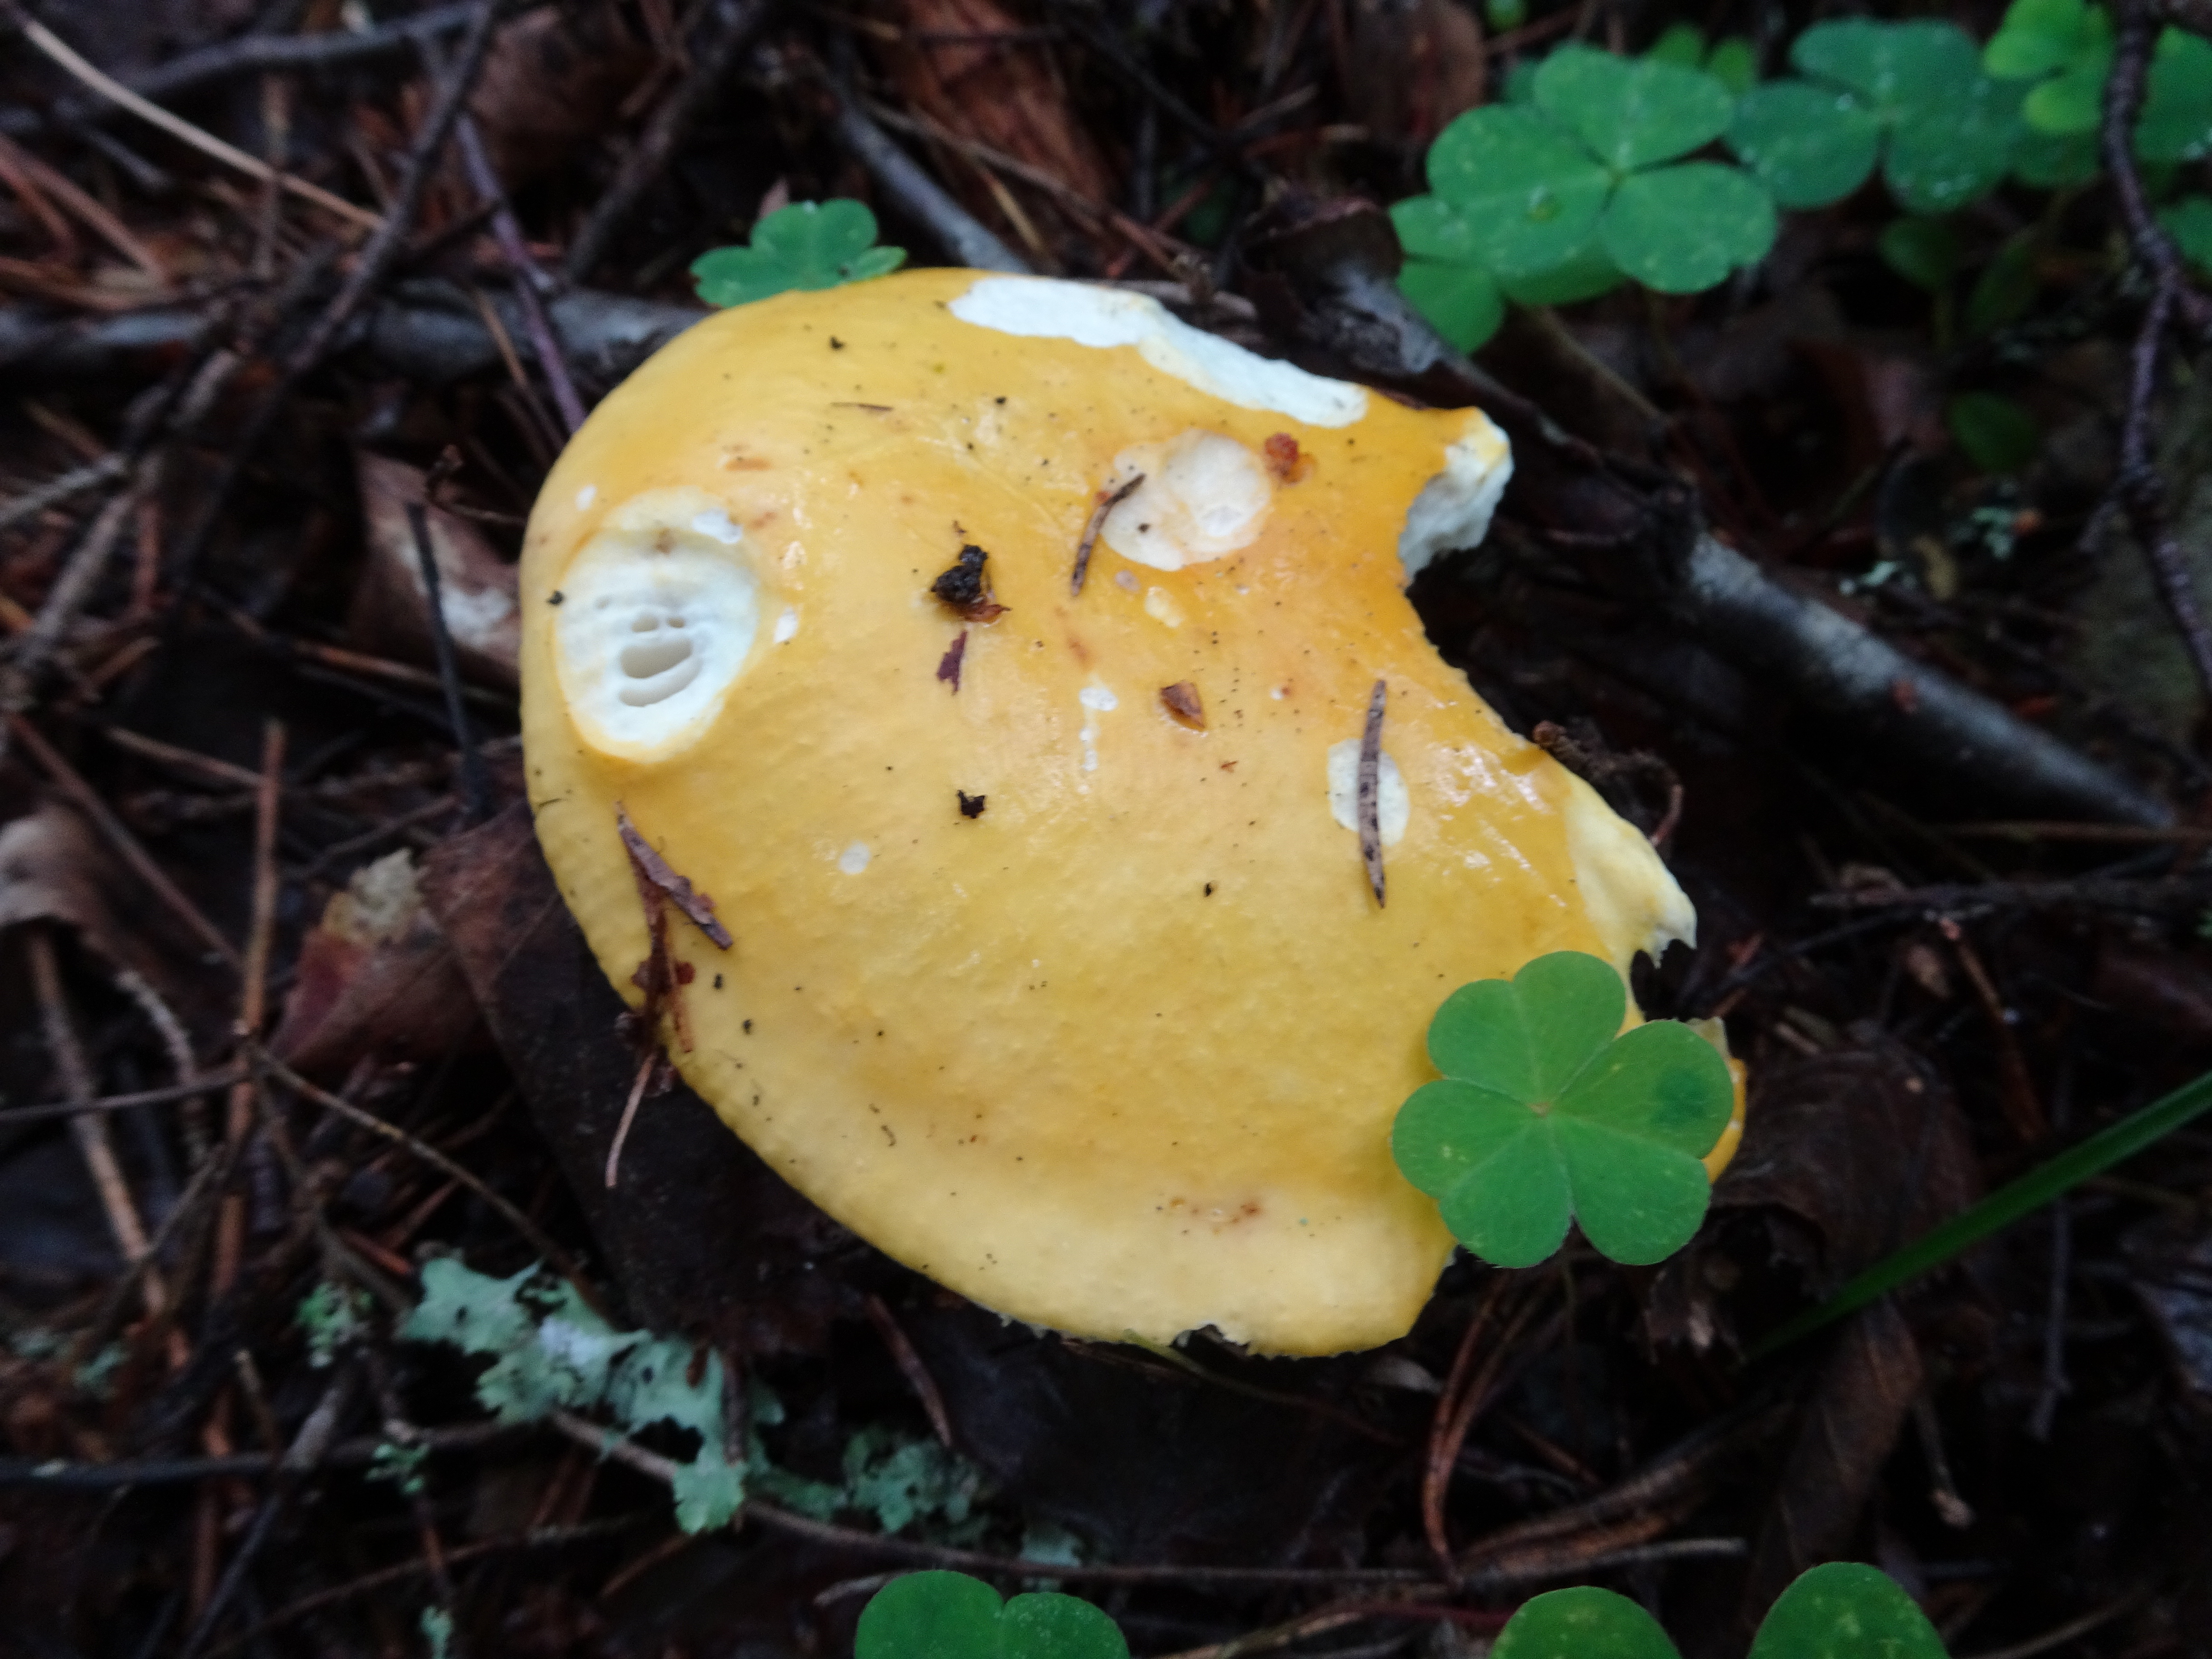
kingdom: Fungi
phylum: Basidiomycota
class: Agaricomycetes
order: Russulales
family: Russulaceae
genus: Russula
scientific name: Russula claroflava
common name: The yellow swamp brittlegill
